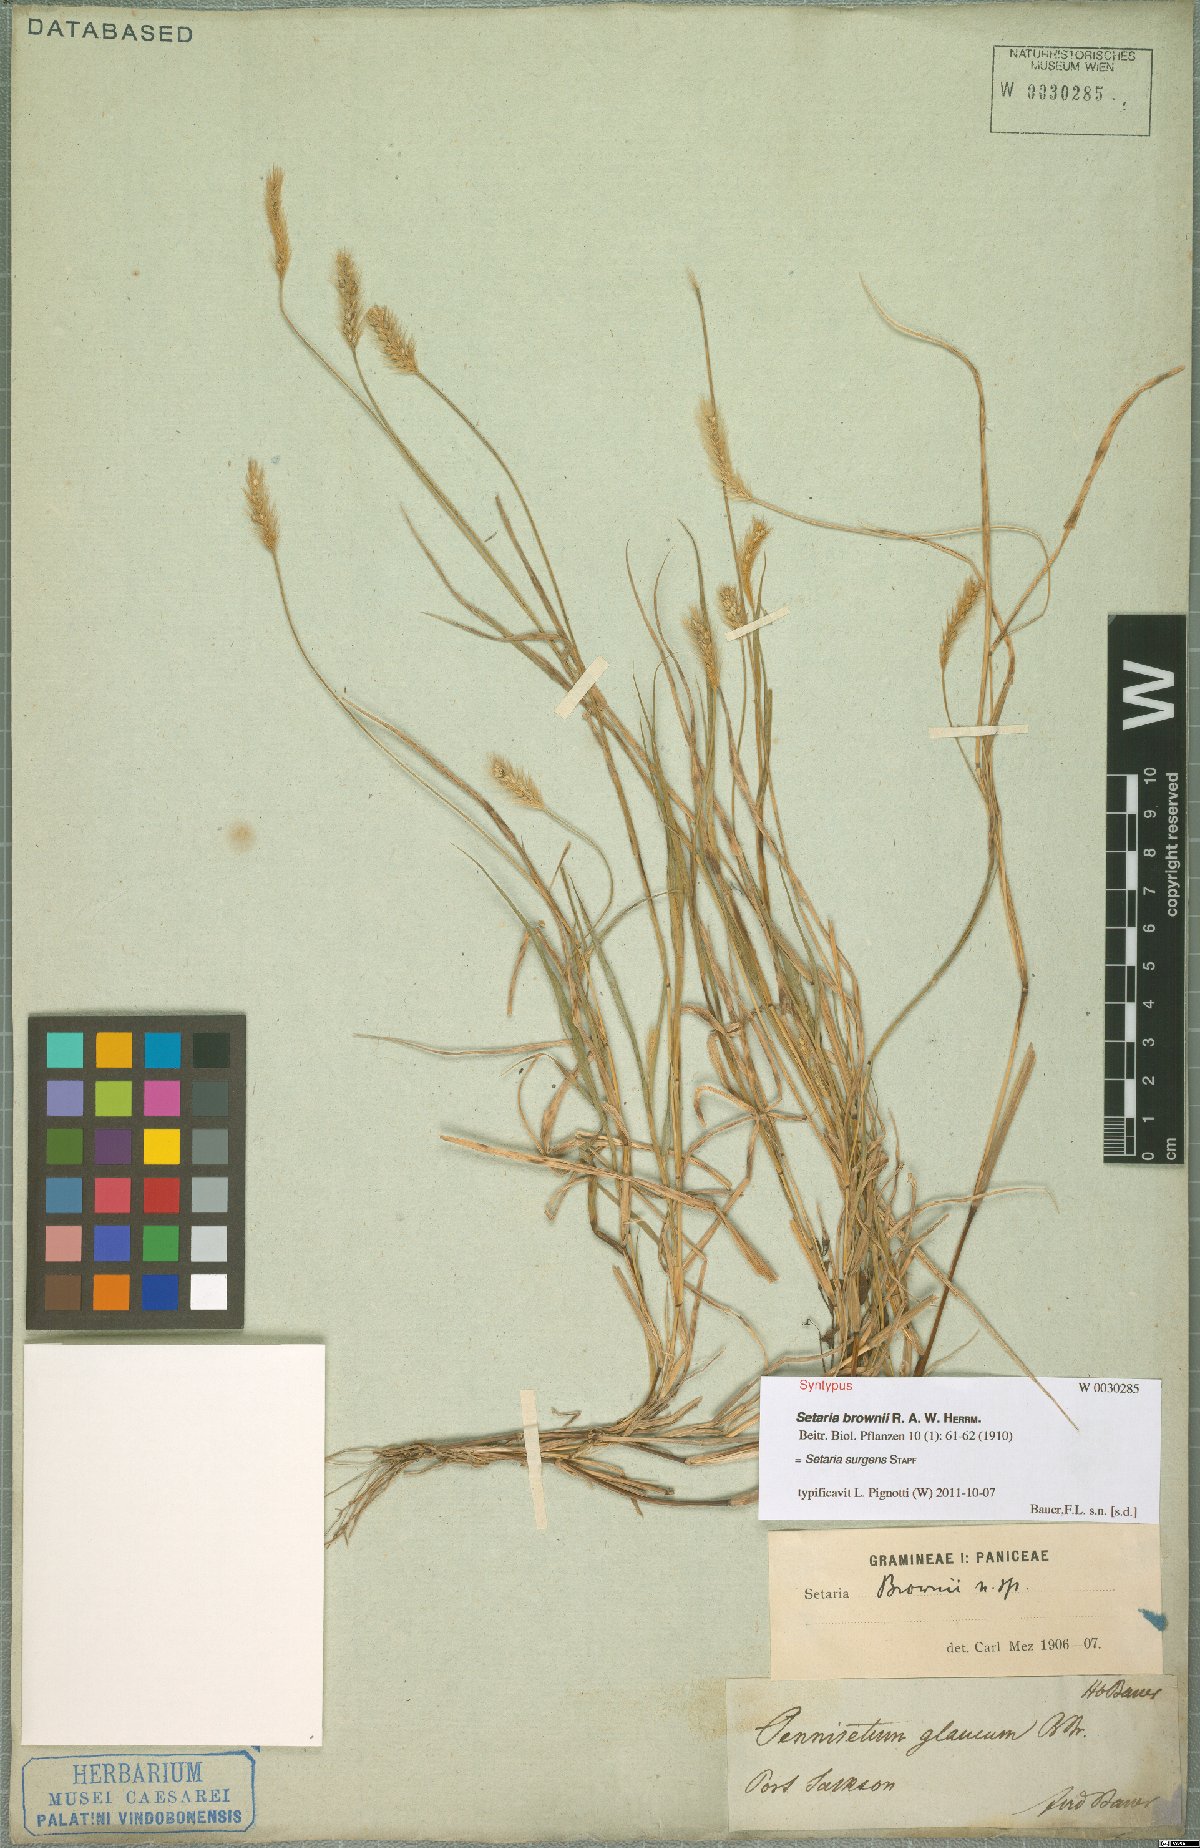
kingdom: Plantae
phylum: Tracheophyta
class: Liliopsida
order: Poales
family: Poaceae
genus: Setaria
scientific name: Setaria surgens
